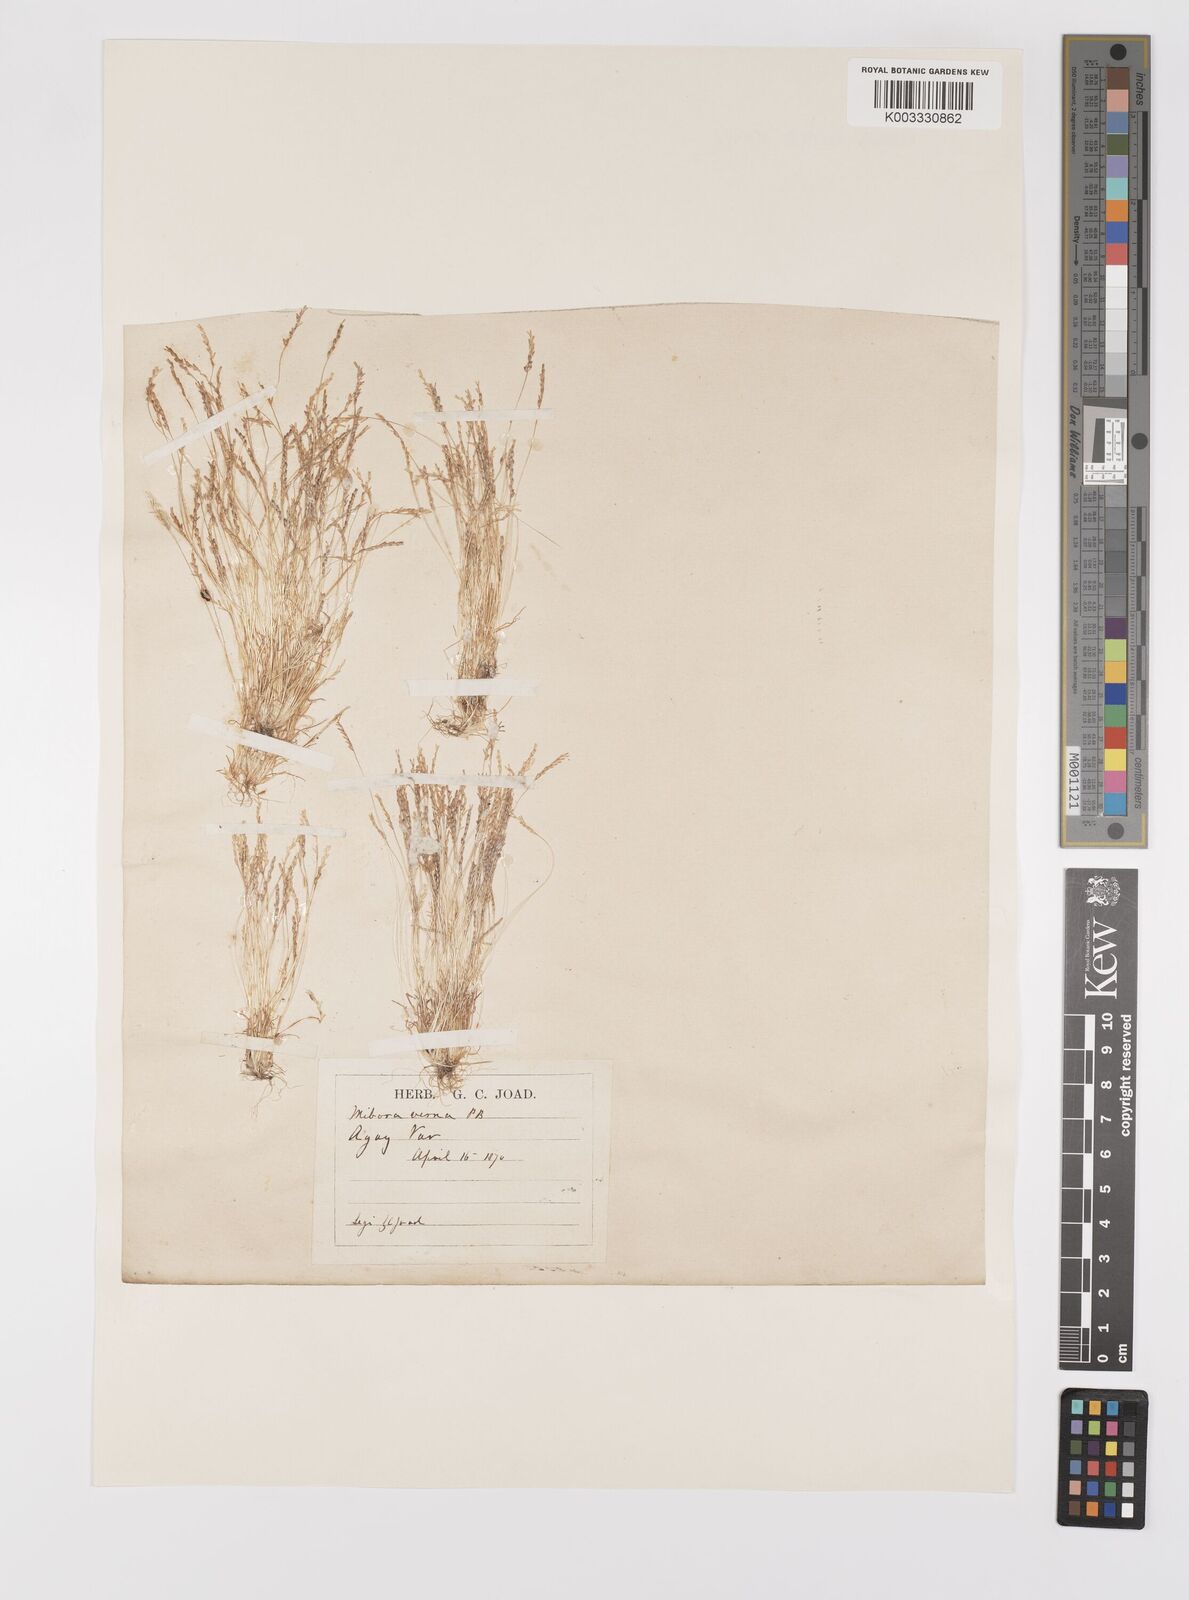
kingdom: Plantae
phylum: Tracheophyta
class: Liliopsida
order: Poales
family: Poaceae
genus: Mibora
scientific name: Mibora minima
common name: Early sand-grass
